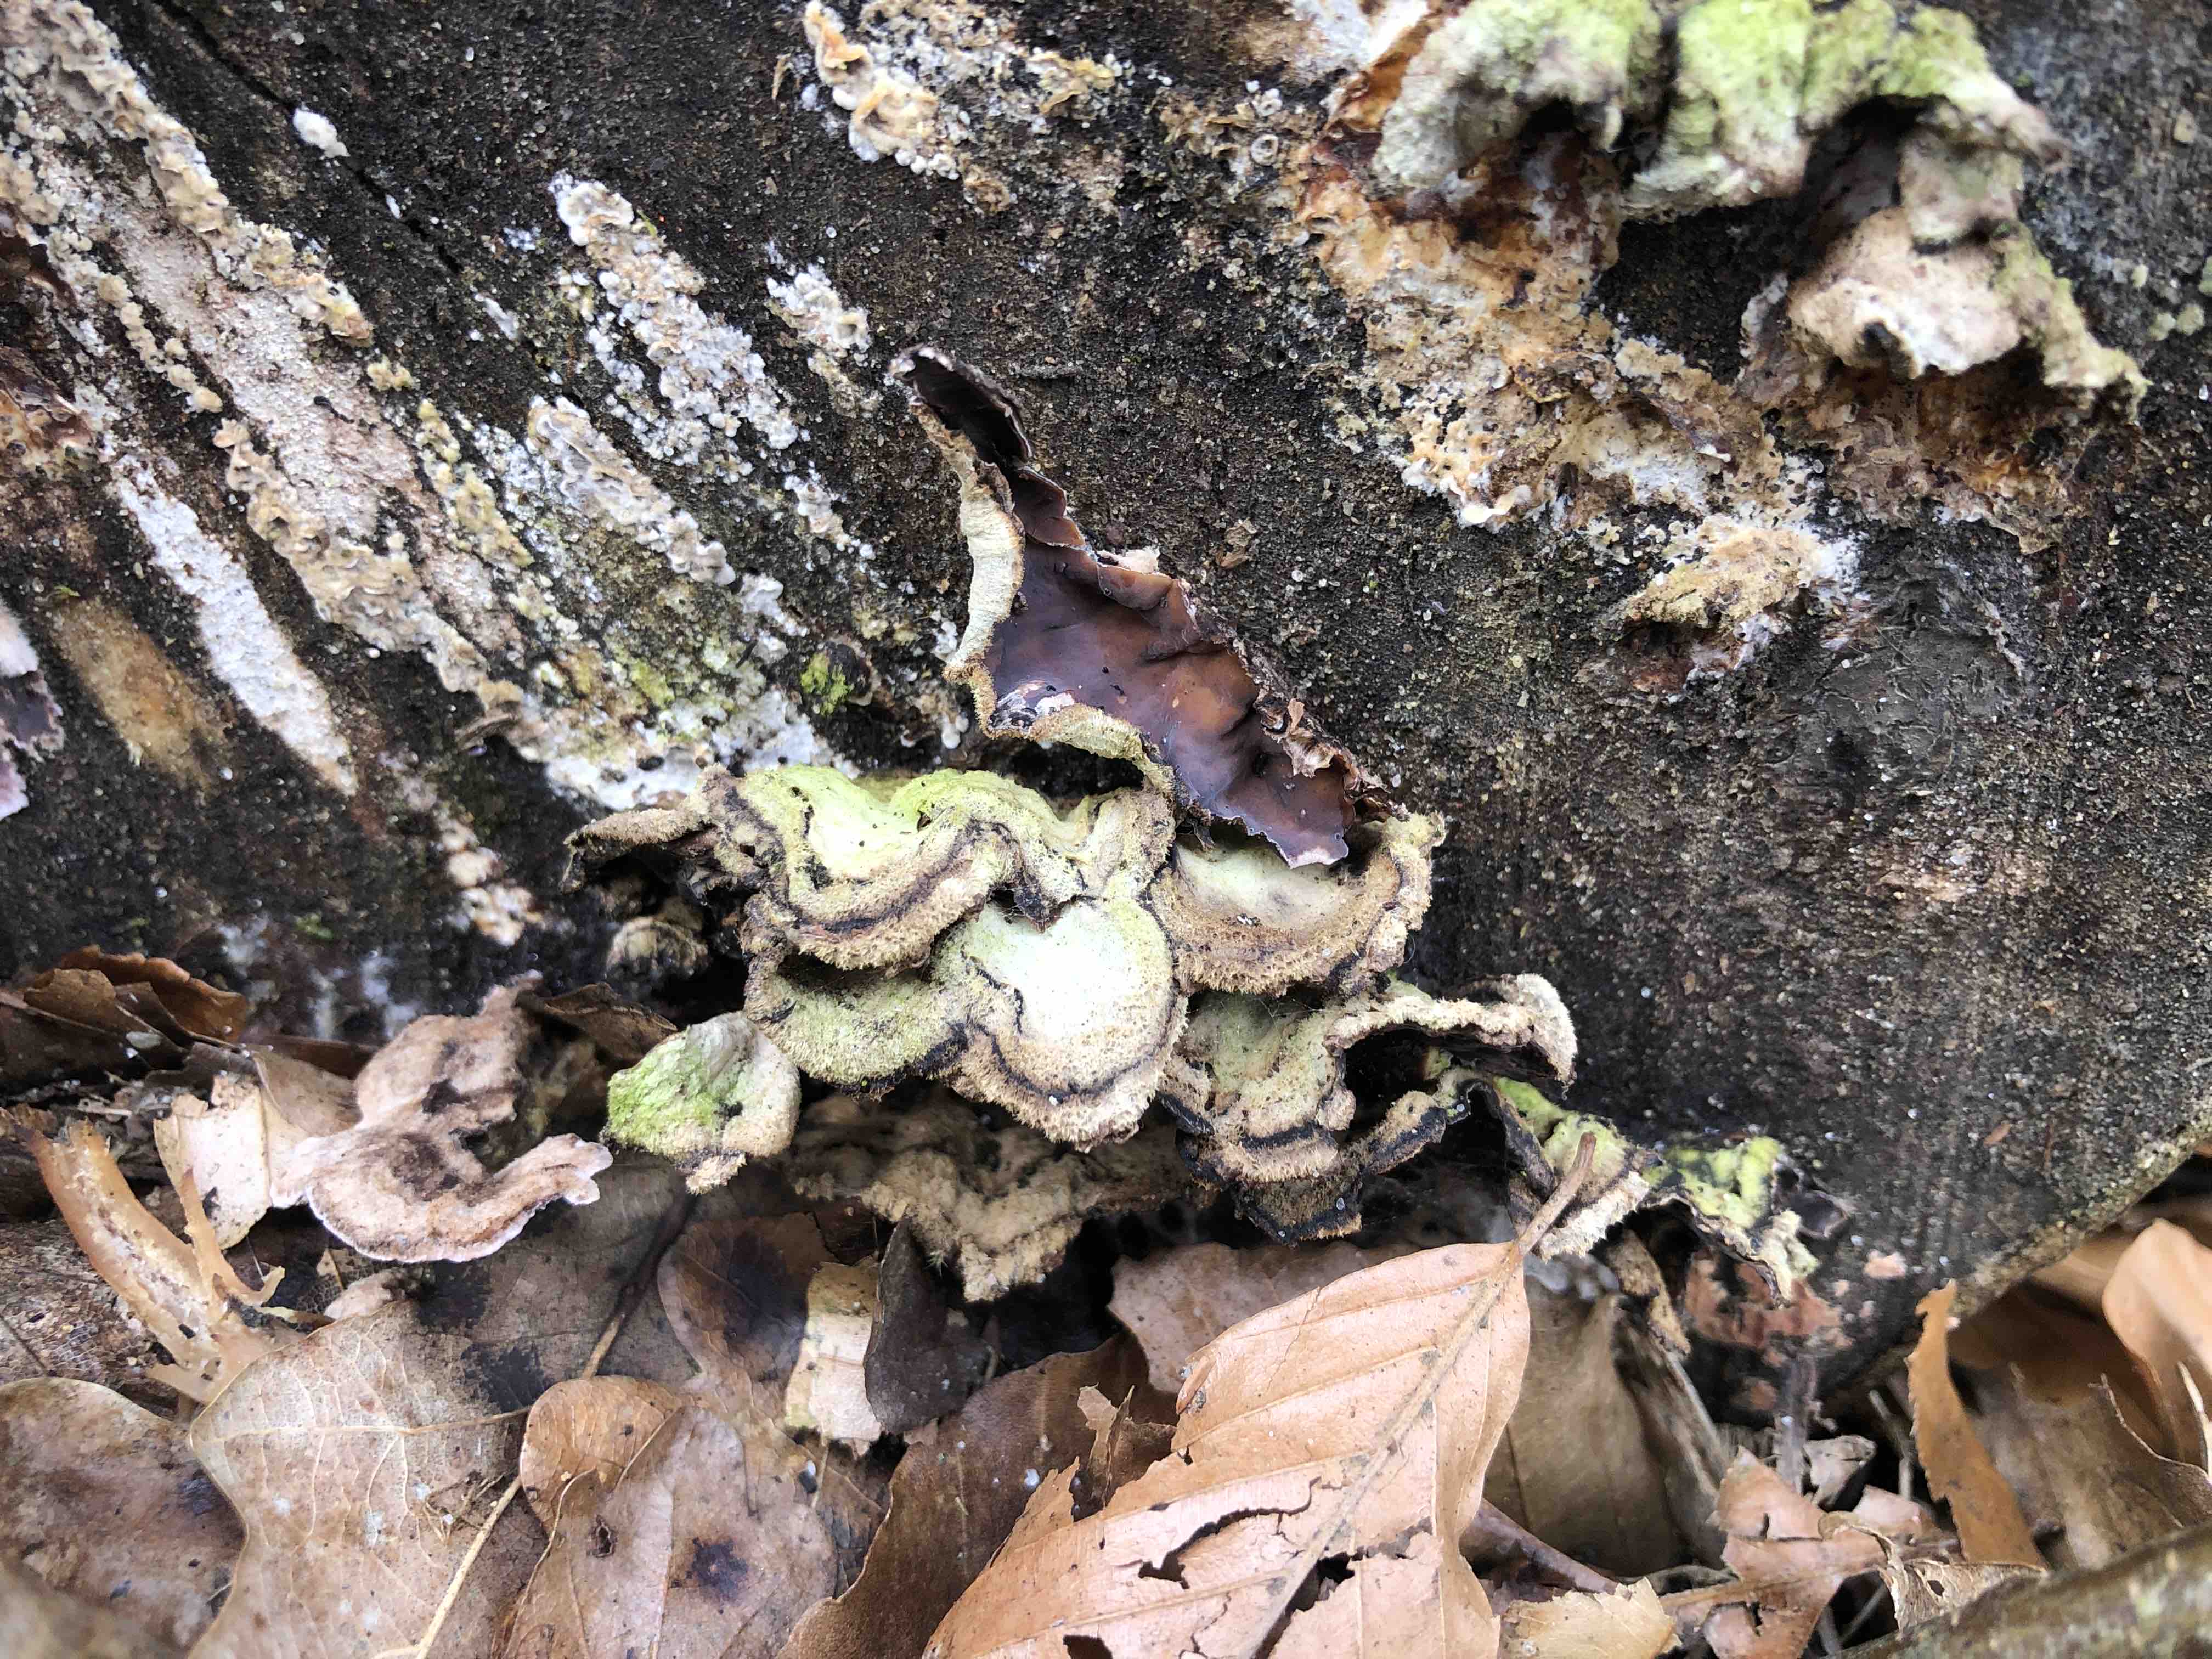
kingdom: Fungi
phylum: Basidiomycota
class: Agaricomycetes
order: Agaricales
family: Cyphellaceae
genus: Chondrostereum
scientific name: Chondrostereum purpureum
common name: purpurlædersvamp
